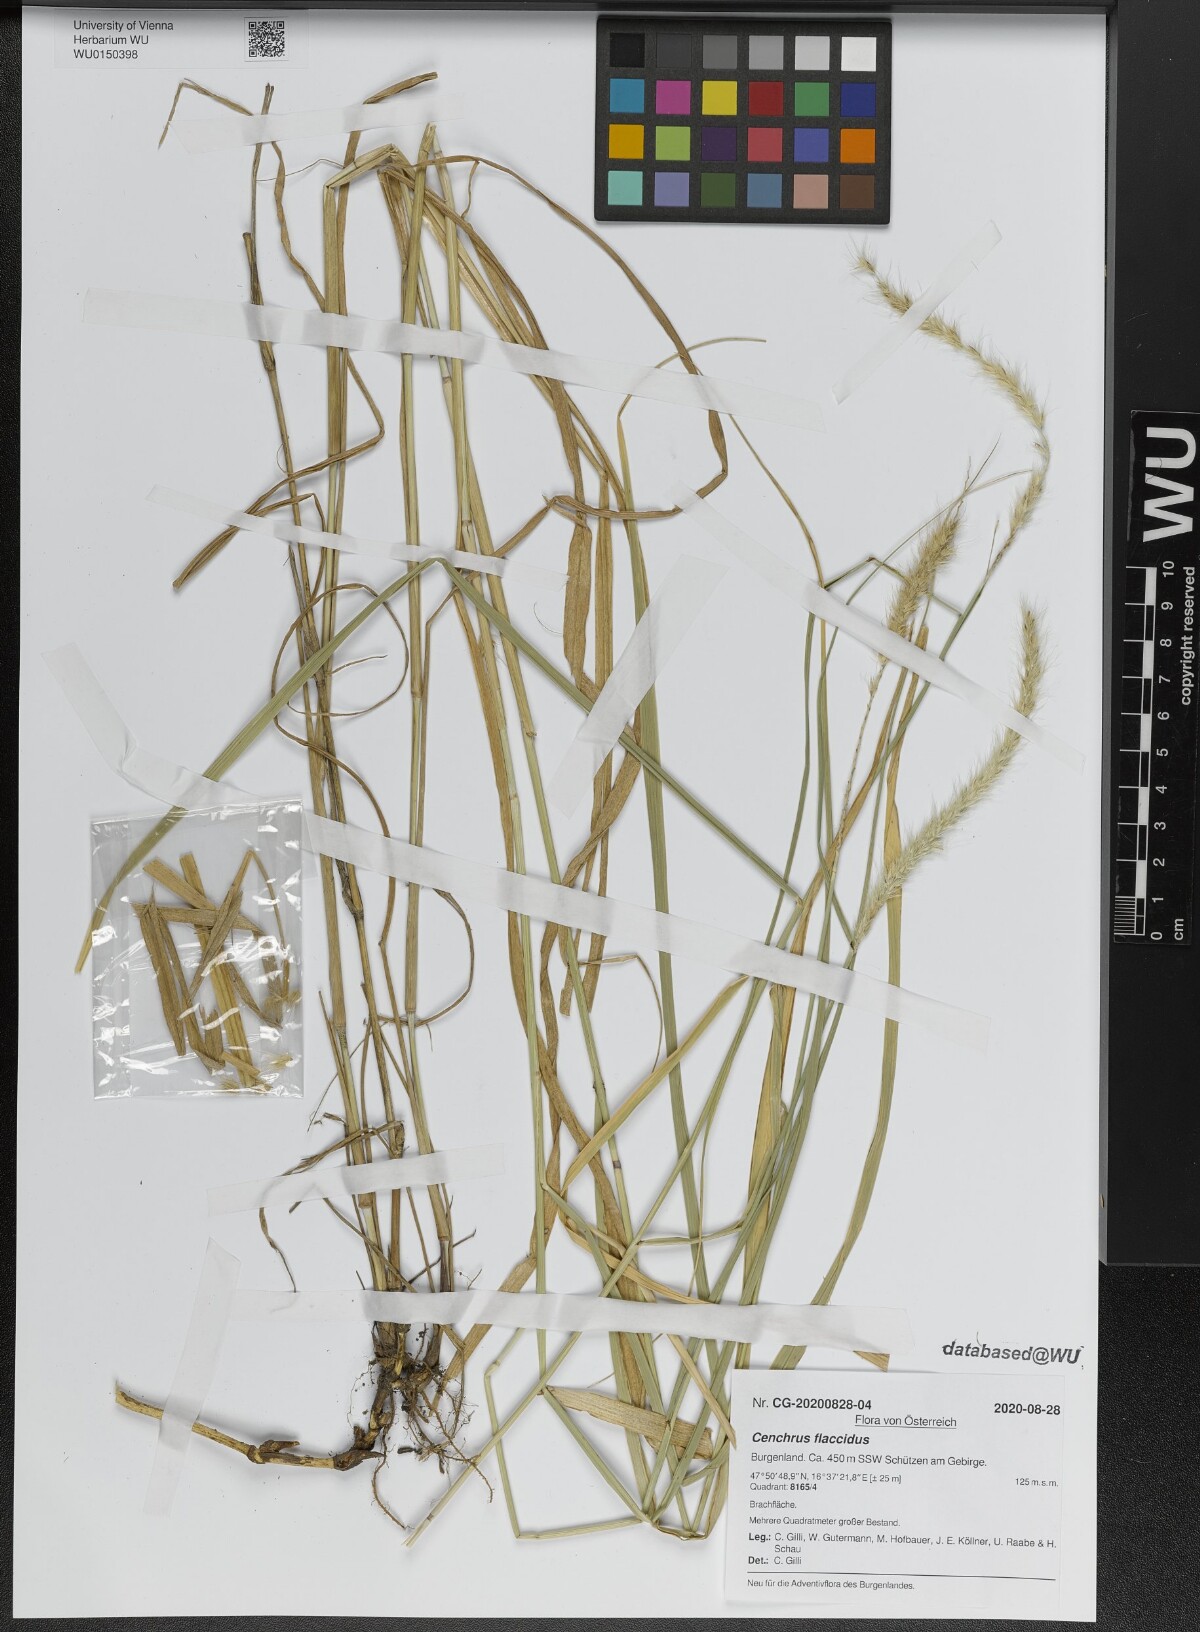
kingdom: Plantae
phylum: Tracheophyta
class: Liliopsida
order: Poales
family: Poaceae
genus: Cenchrus
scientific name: Cenchrus flaccidus
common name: Flaccid grass
